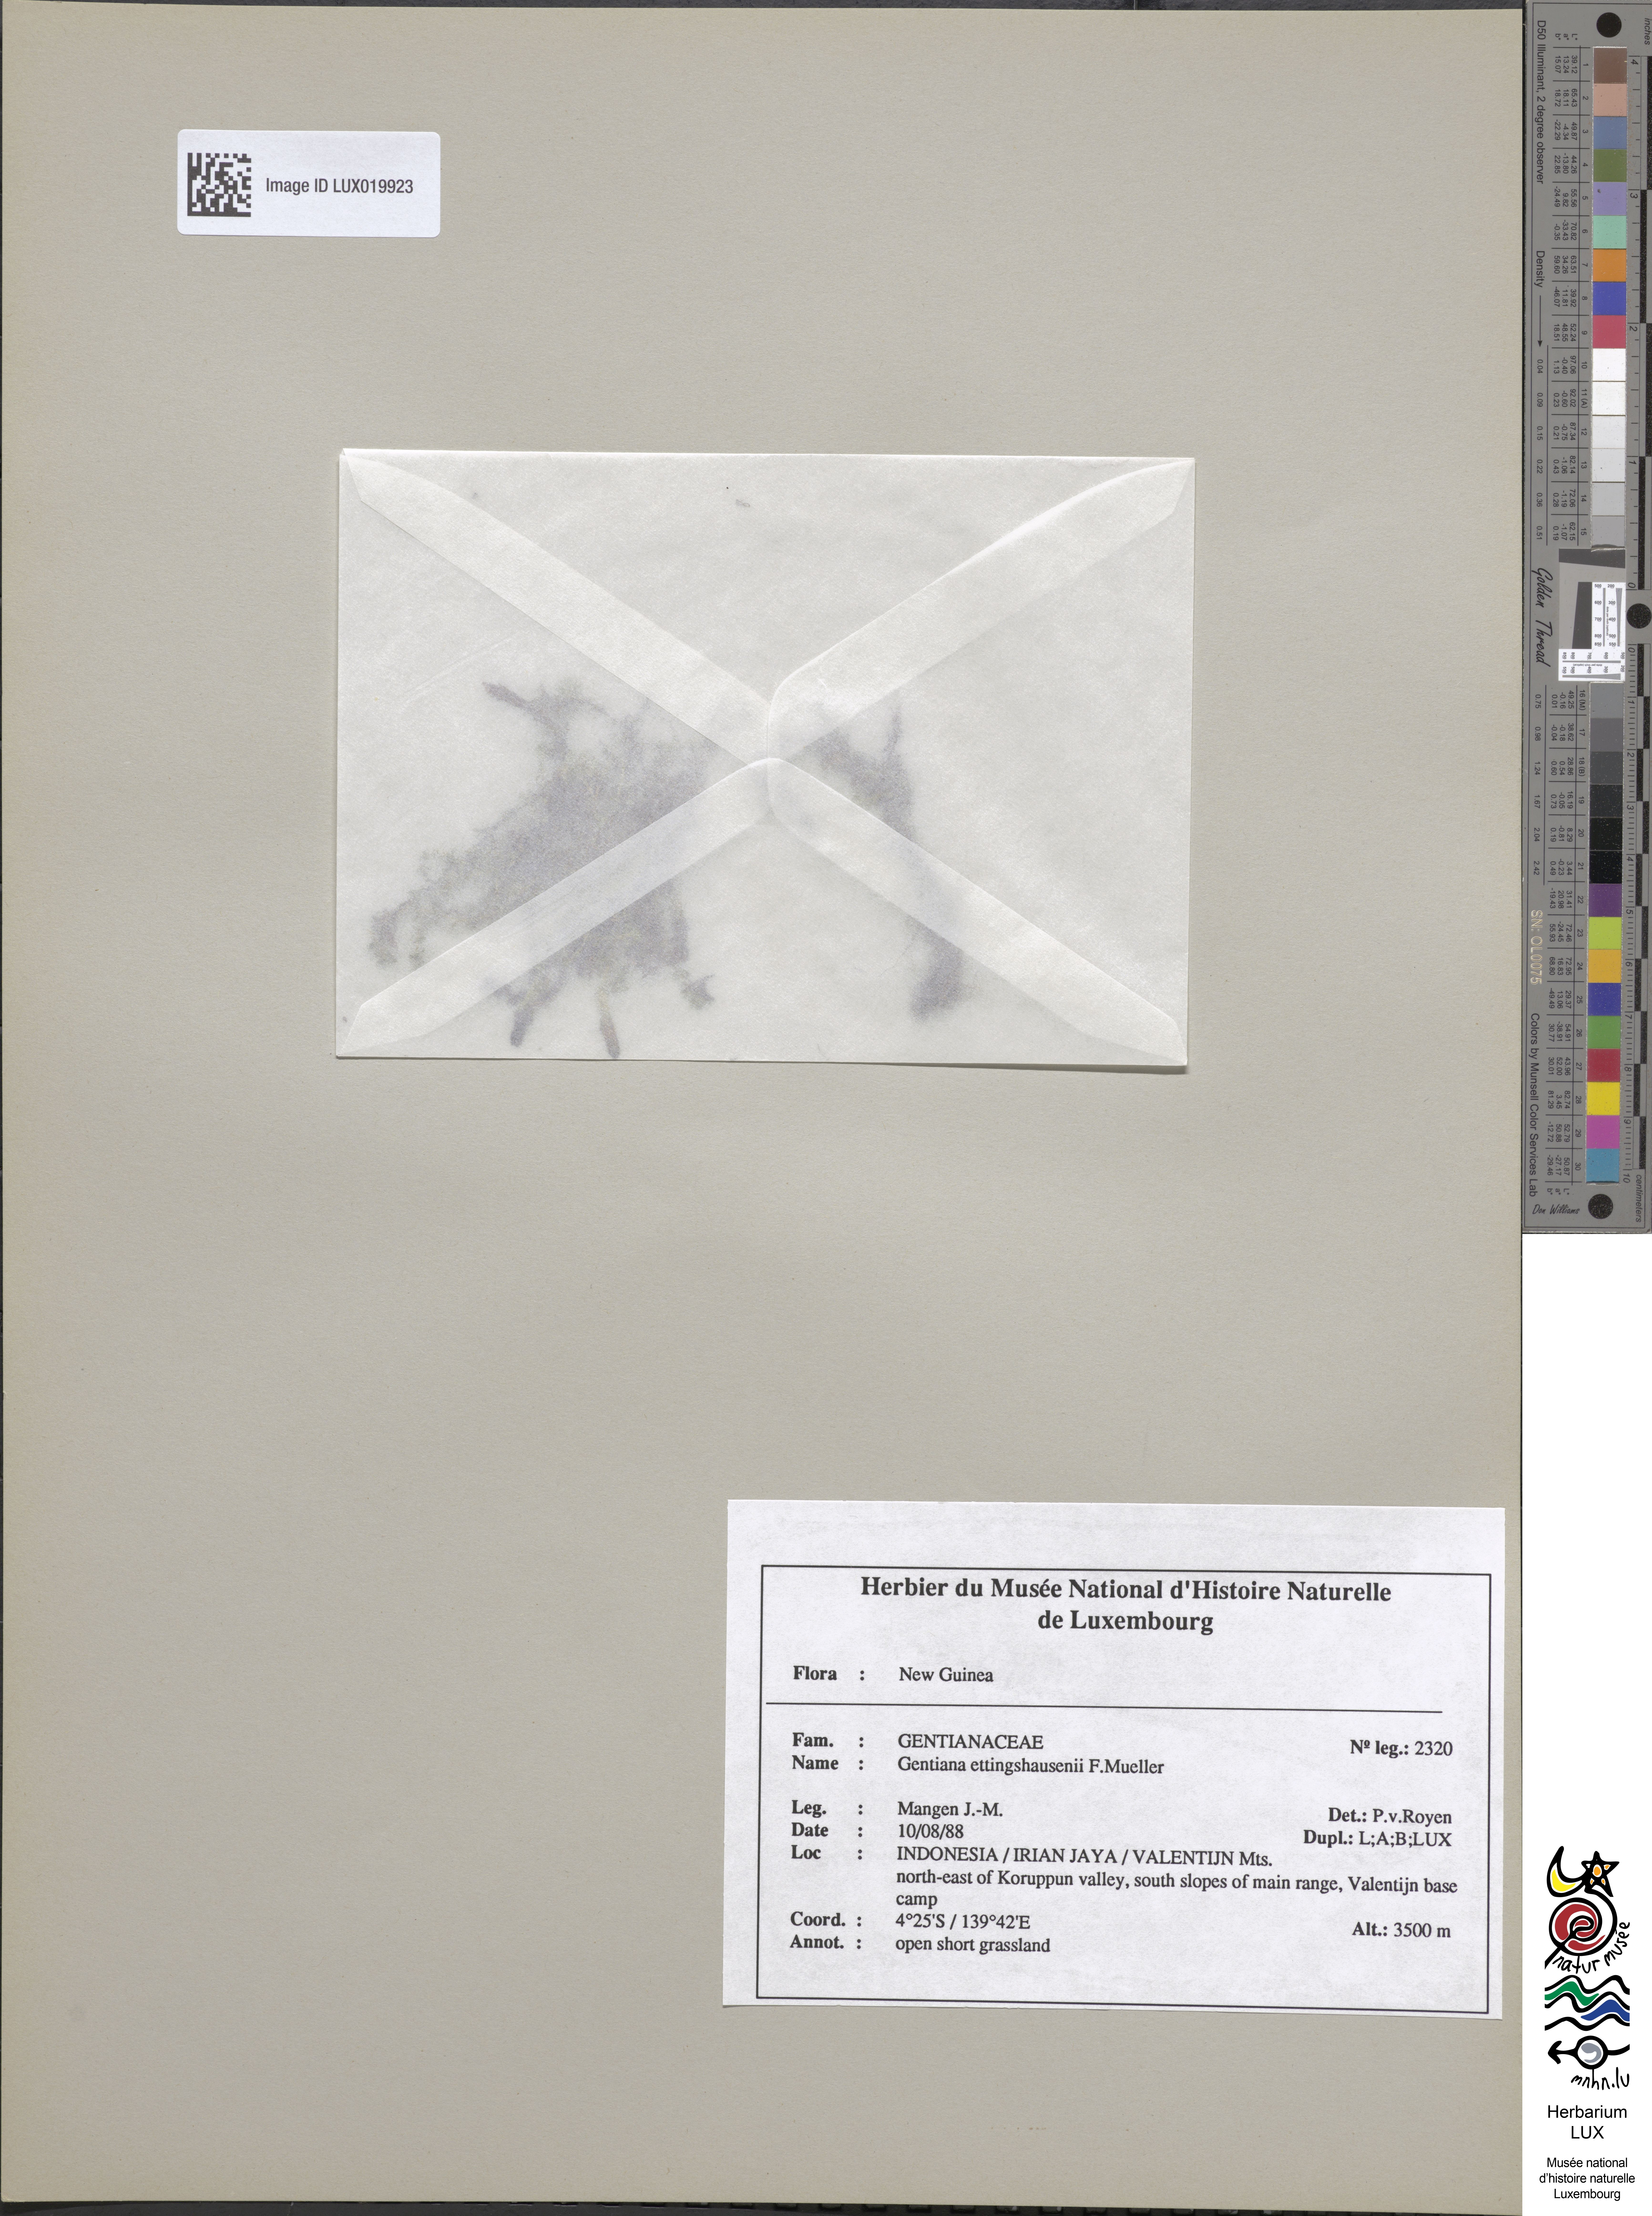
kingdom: Plantae
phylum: Tracheophyta
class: Magnoliopsida
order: Gentianales
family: Gentianaceae
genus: Gentiana
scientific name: Gentiana ettingshausenii
